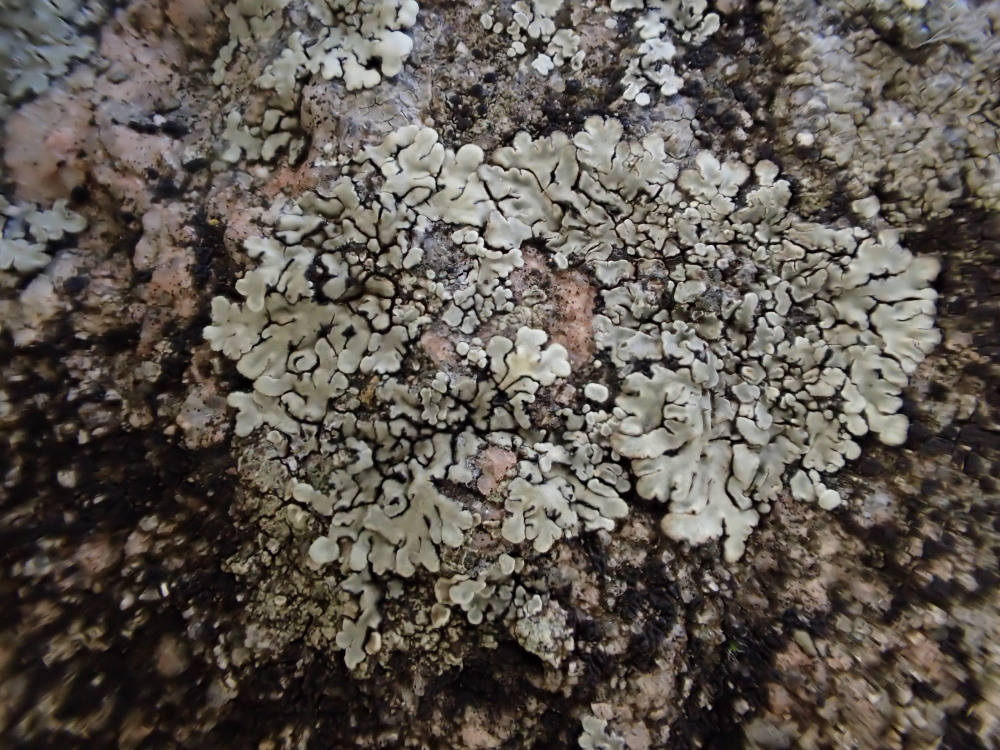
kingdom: Fungi
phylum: Ascomycota
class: Lecanoromycetes
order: Lecanorales
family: Lecanoraceae
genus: Protoparmeliopsis
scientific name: Protoparmeliopsis muralis
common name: randfliget kantskivelav
